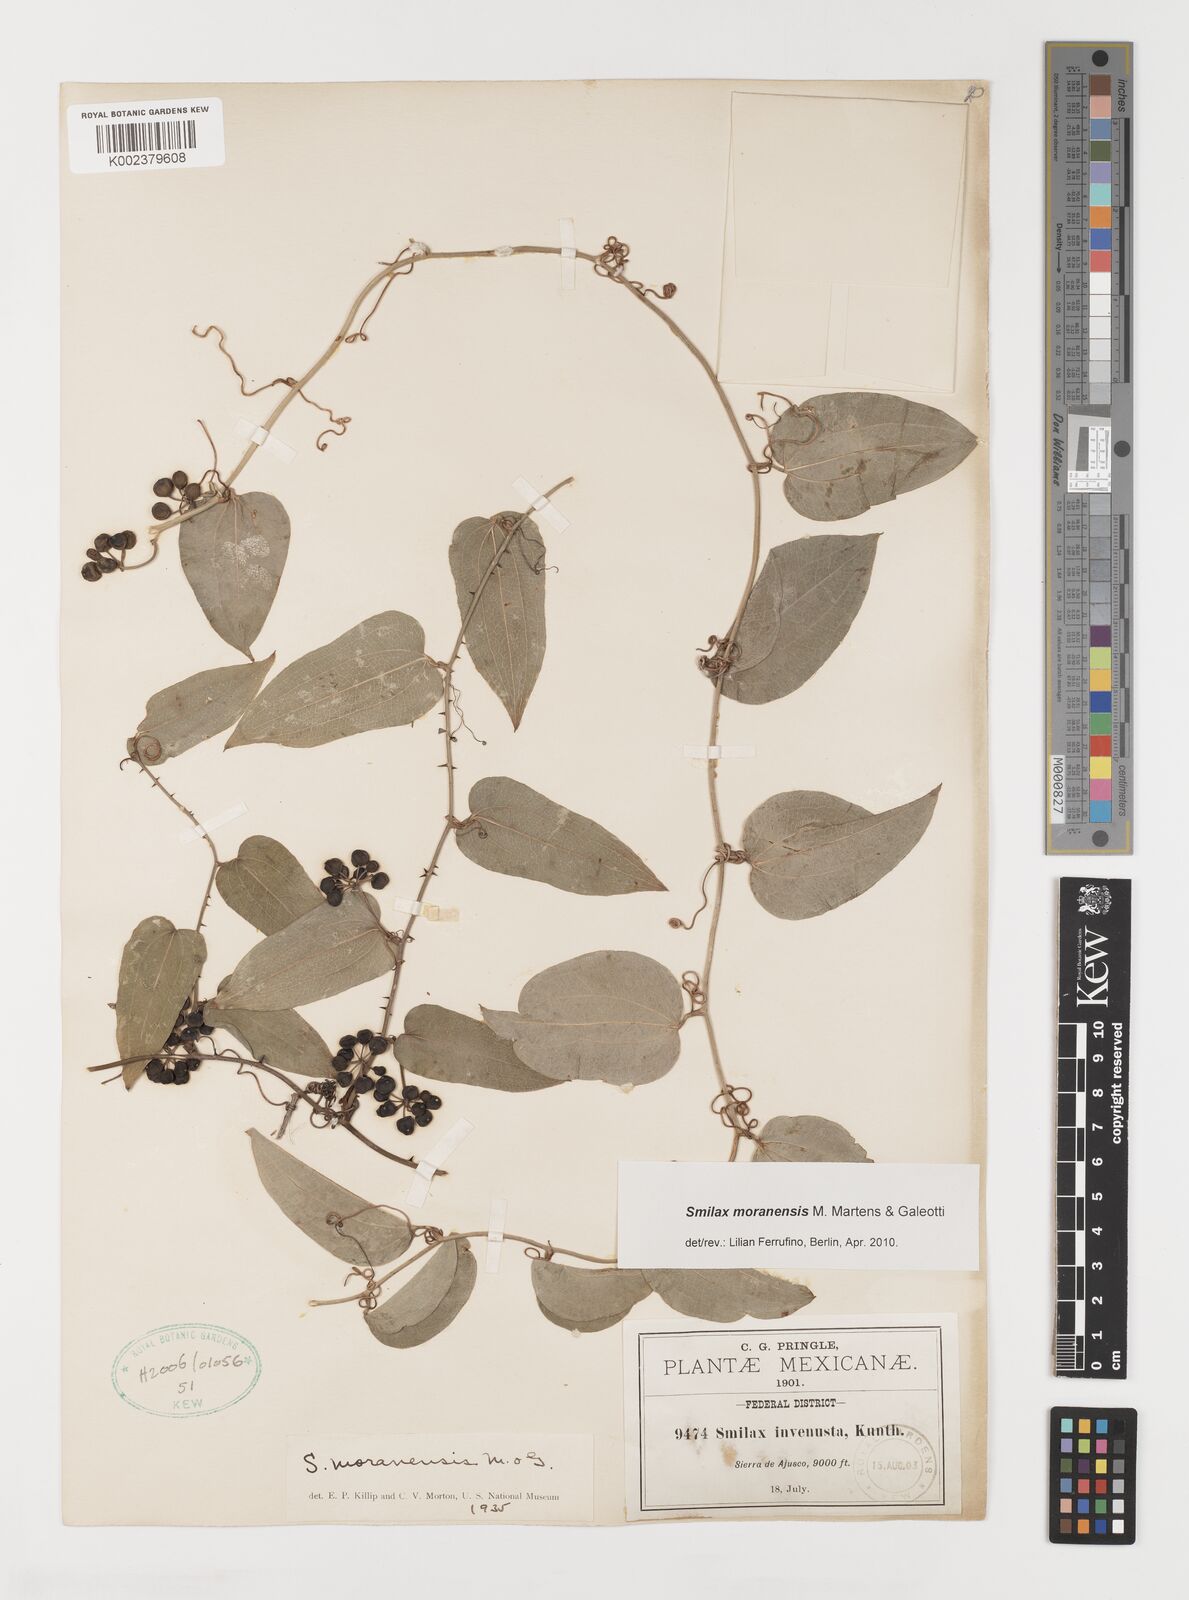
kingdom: Plantae
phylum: Tracheophyta
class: Liliopsida
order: Liliales
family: Smilacaceae
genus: Smilax
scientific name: Smilax moranensis
